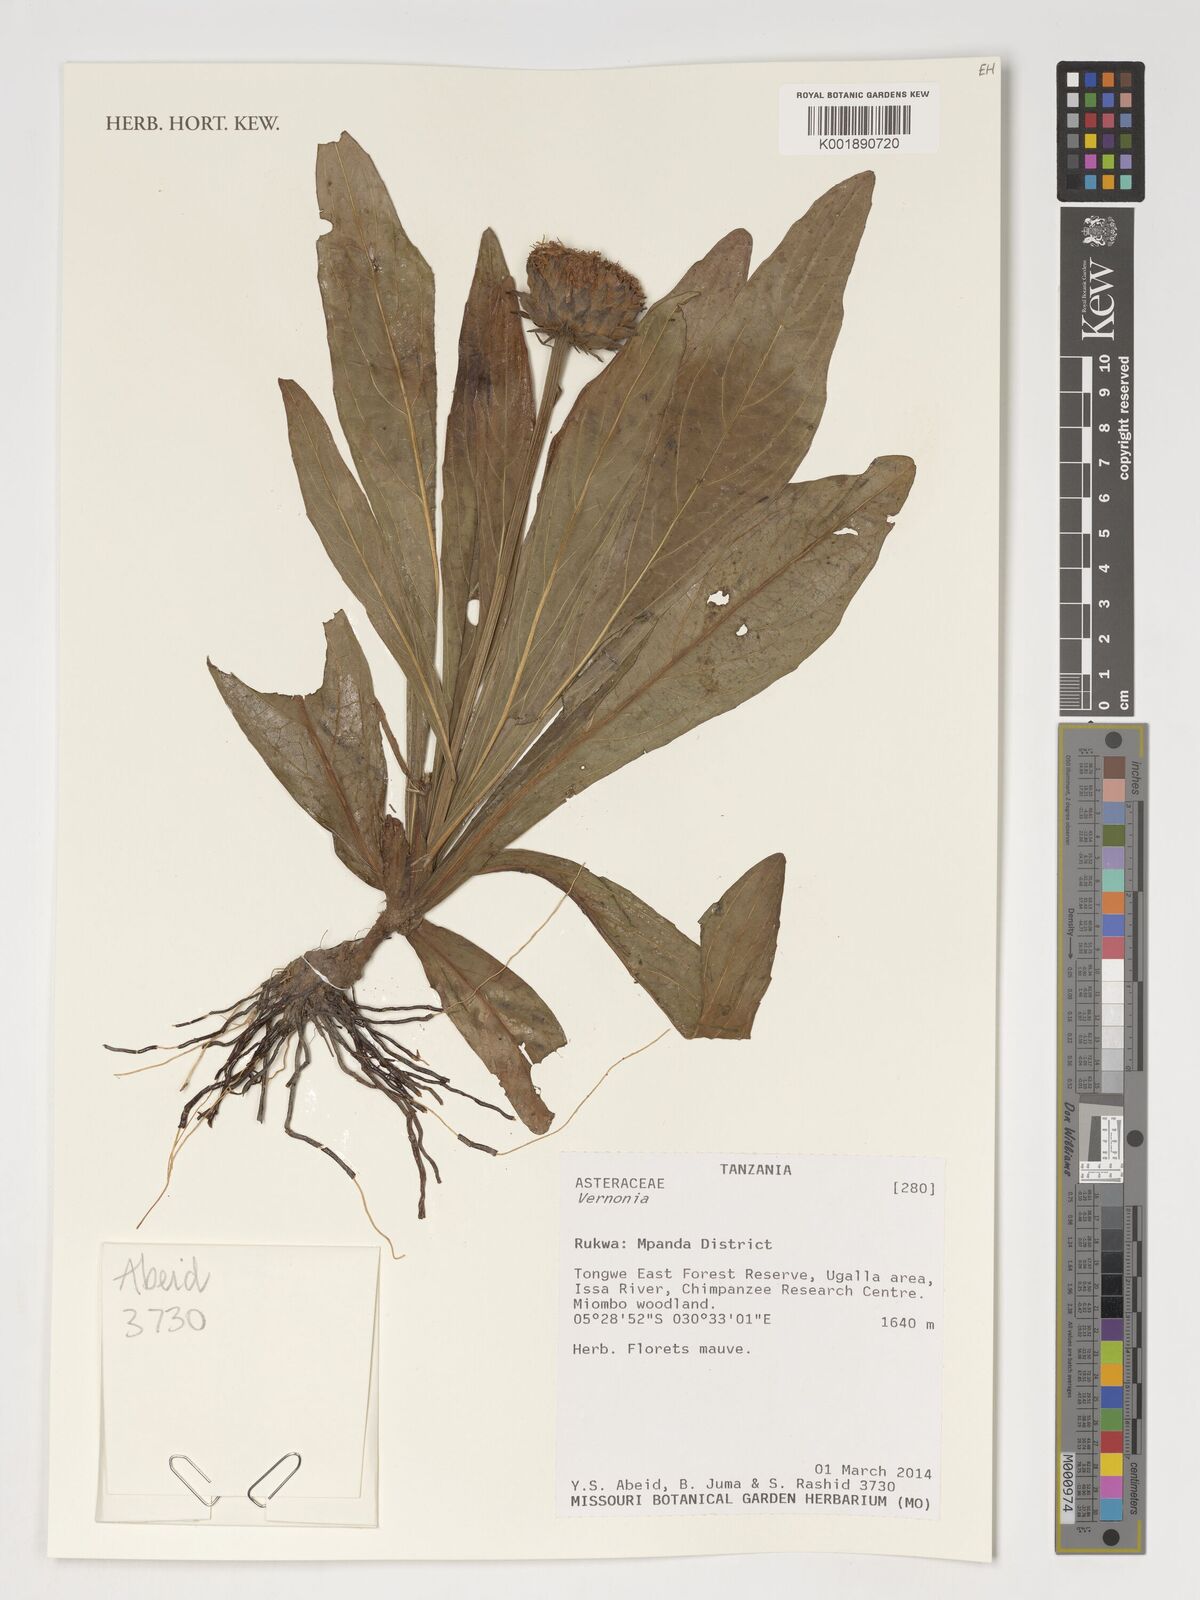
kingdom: Plantae
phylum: Tracheophyta
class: Magnoliopsida
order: Asterales
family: Asteraceae
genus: Vernonia
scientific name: Vernonia
